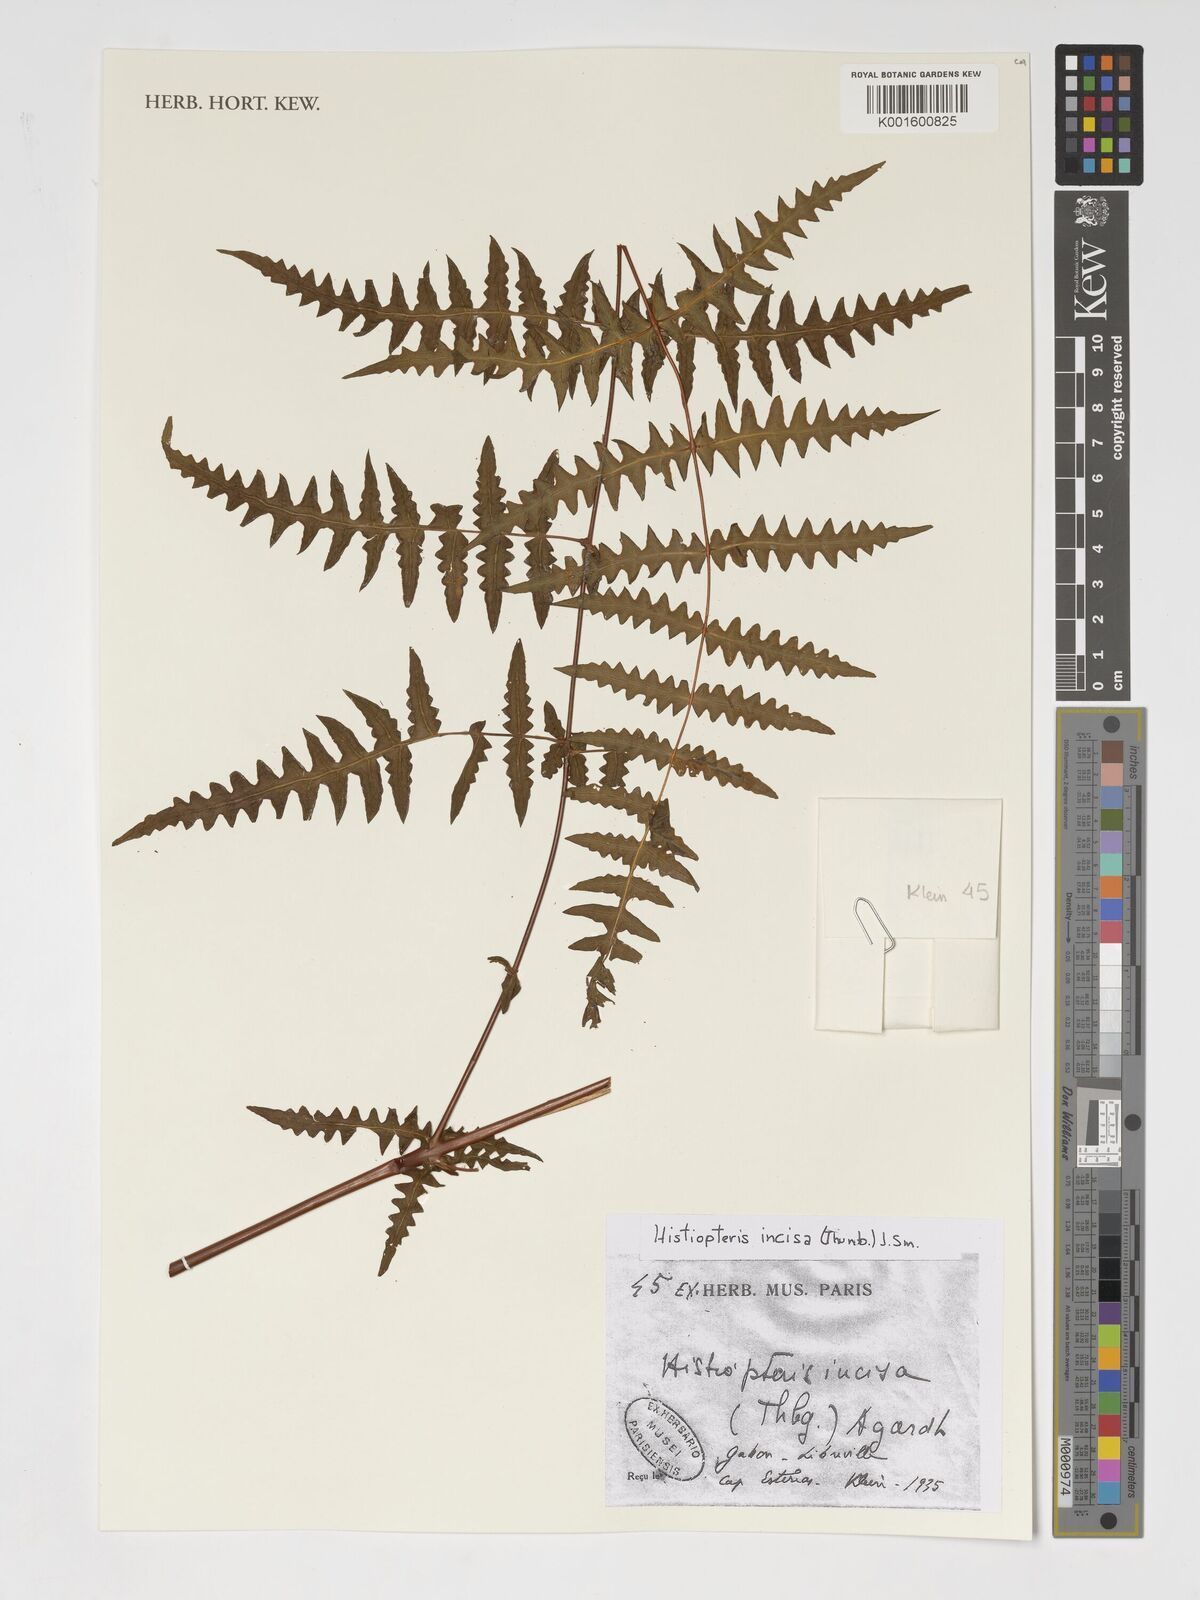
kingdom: Plantae
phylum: Tracheophyta
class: Polypodiopsida
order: Polypodiales
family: Dennstaedtiaceae
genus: Histiopteris
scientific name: Histiopteris incisa
